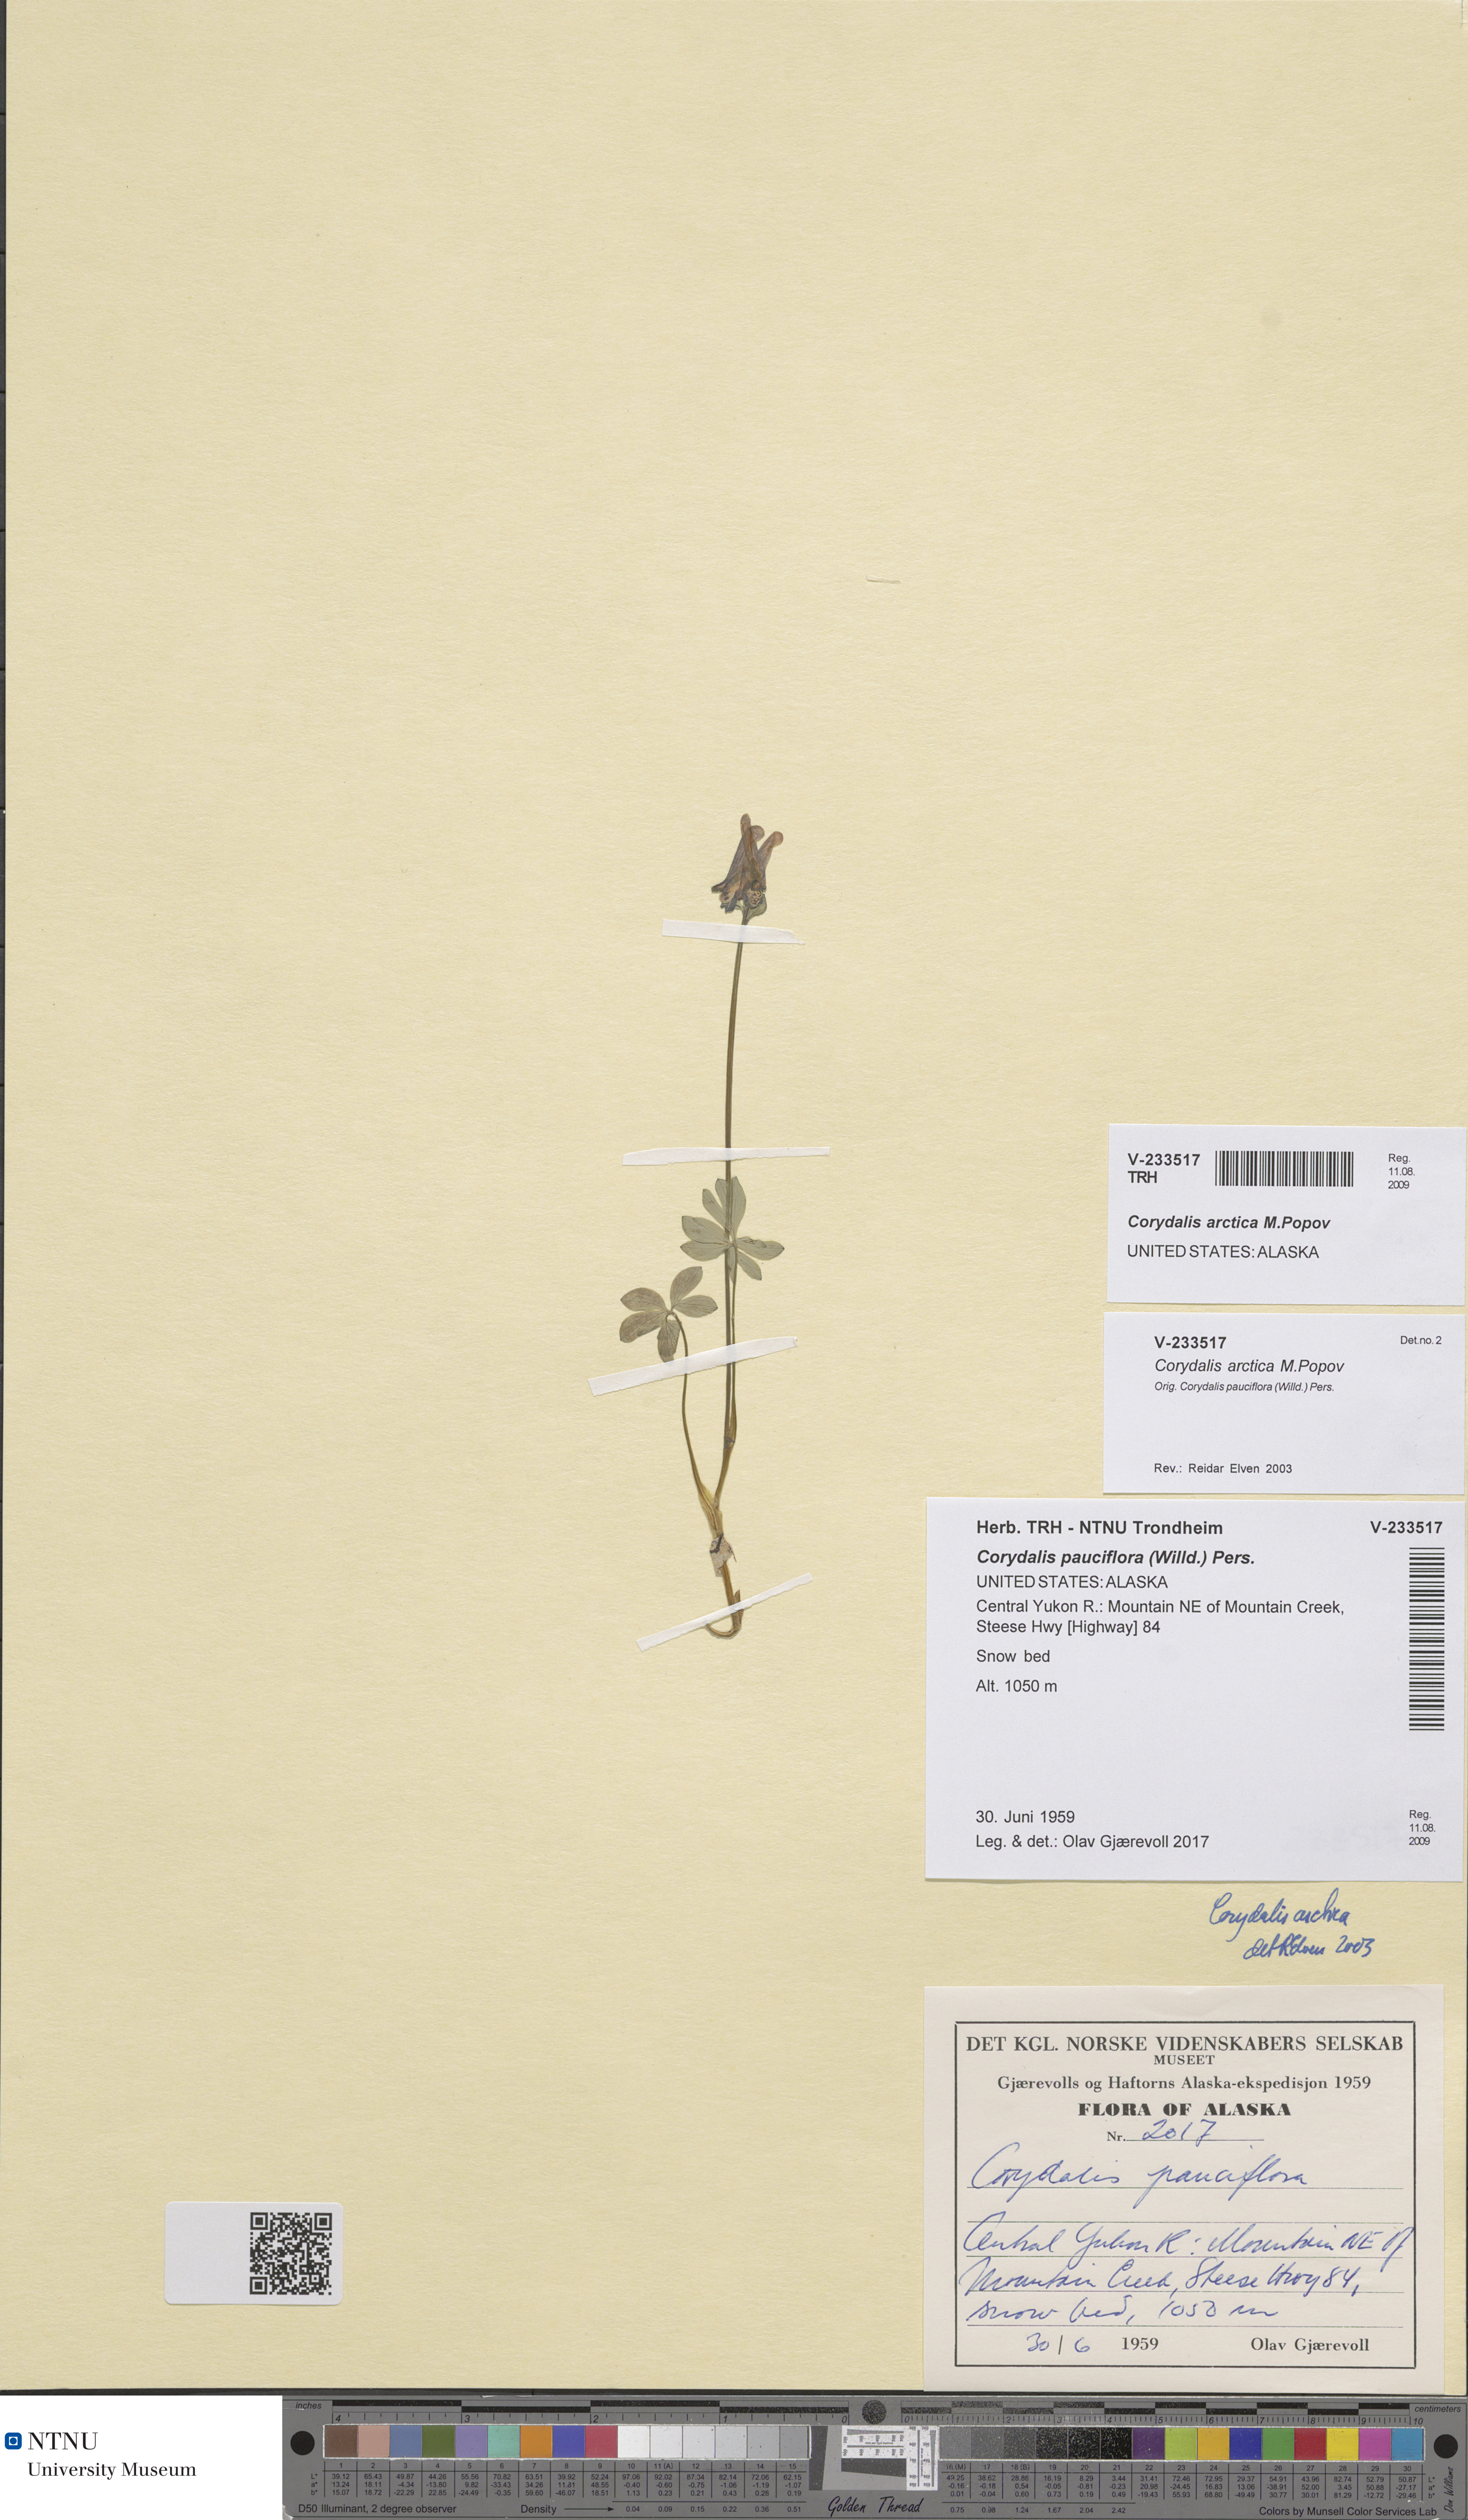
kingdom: Plantae
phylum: Tracheophyta
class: Magnoliopsida
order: Ranunculales
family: Papaveraceae
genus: Corydalis
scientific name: Corydalis arctica
